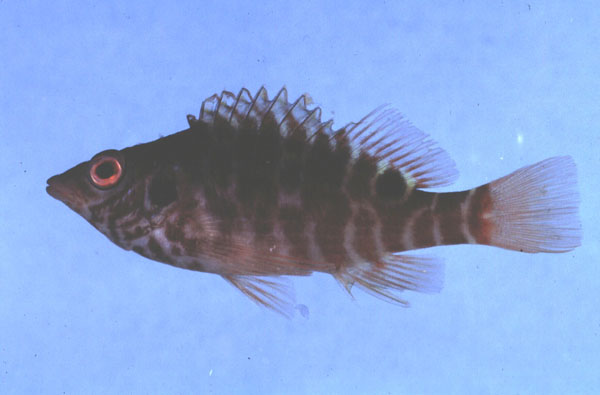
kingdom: Animalia
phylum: Chordata
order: Perciformes
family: Cirrhitidae
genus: Amblycirrhitus
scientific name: Amblycirrhitus bimacula
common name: Twinspot hawkfish
